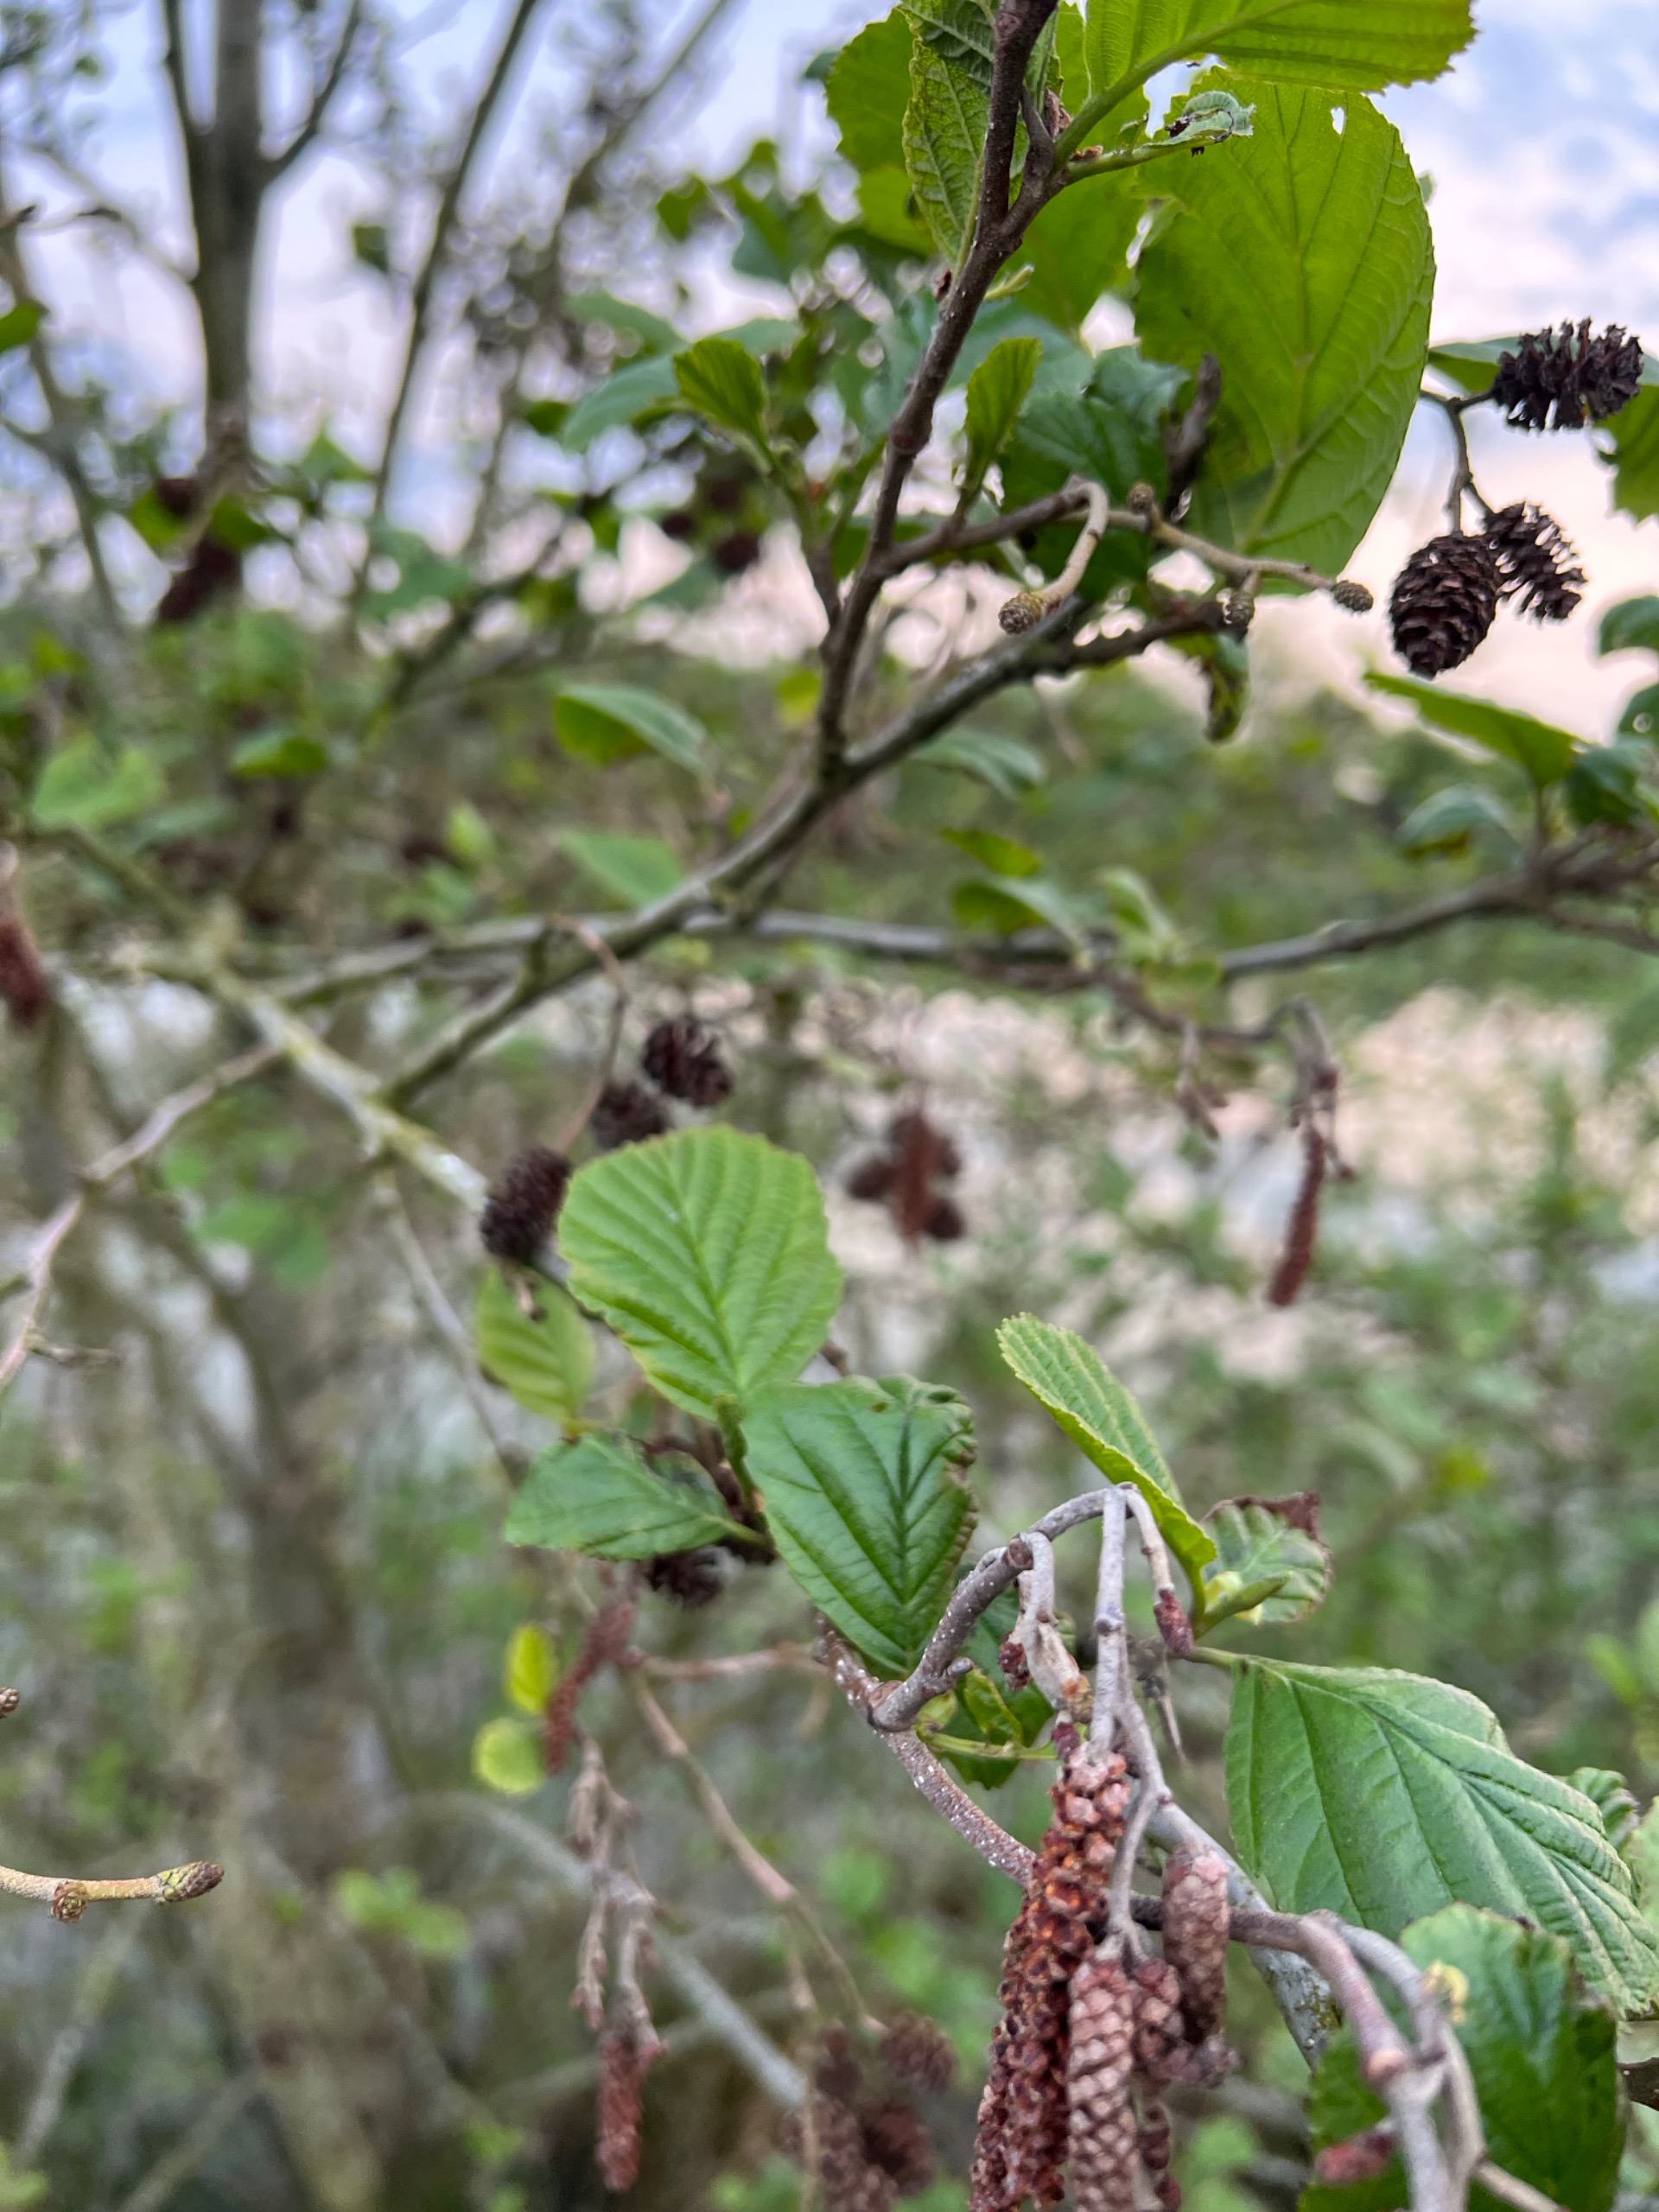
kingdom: Plantae
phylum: Tracheophyta
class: Magnoliopsida
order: Fagales
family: Betulaceae
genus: Alnus
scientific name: Alnus glutinosa
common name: Rød-el
